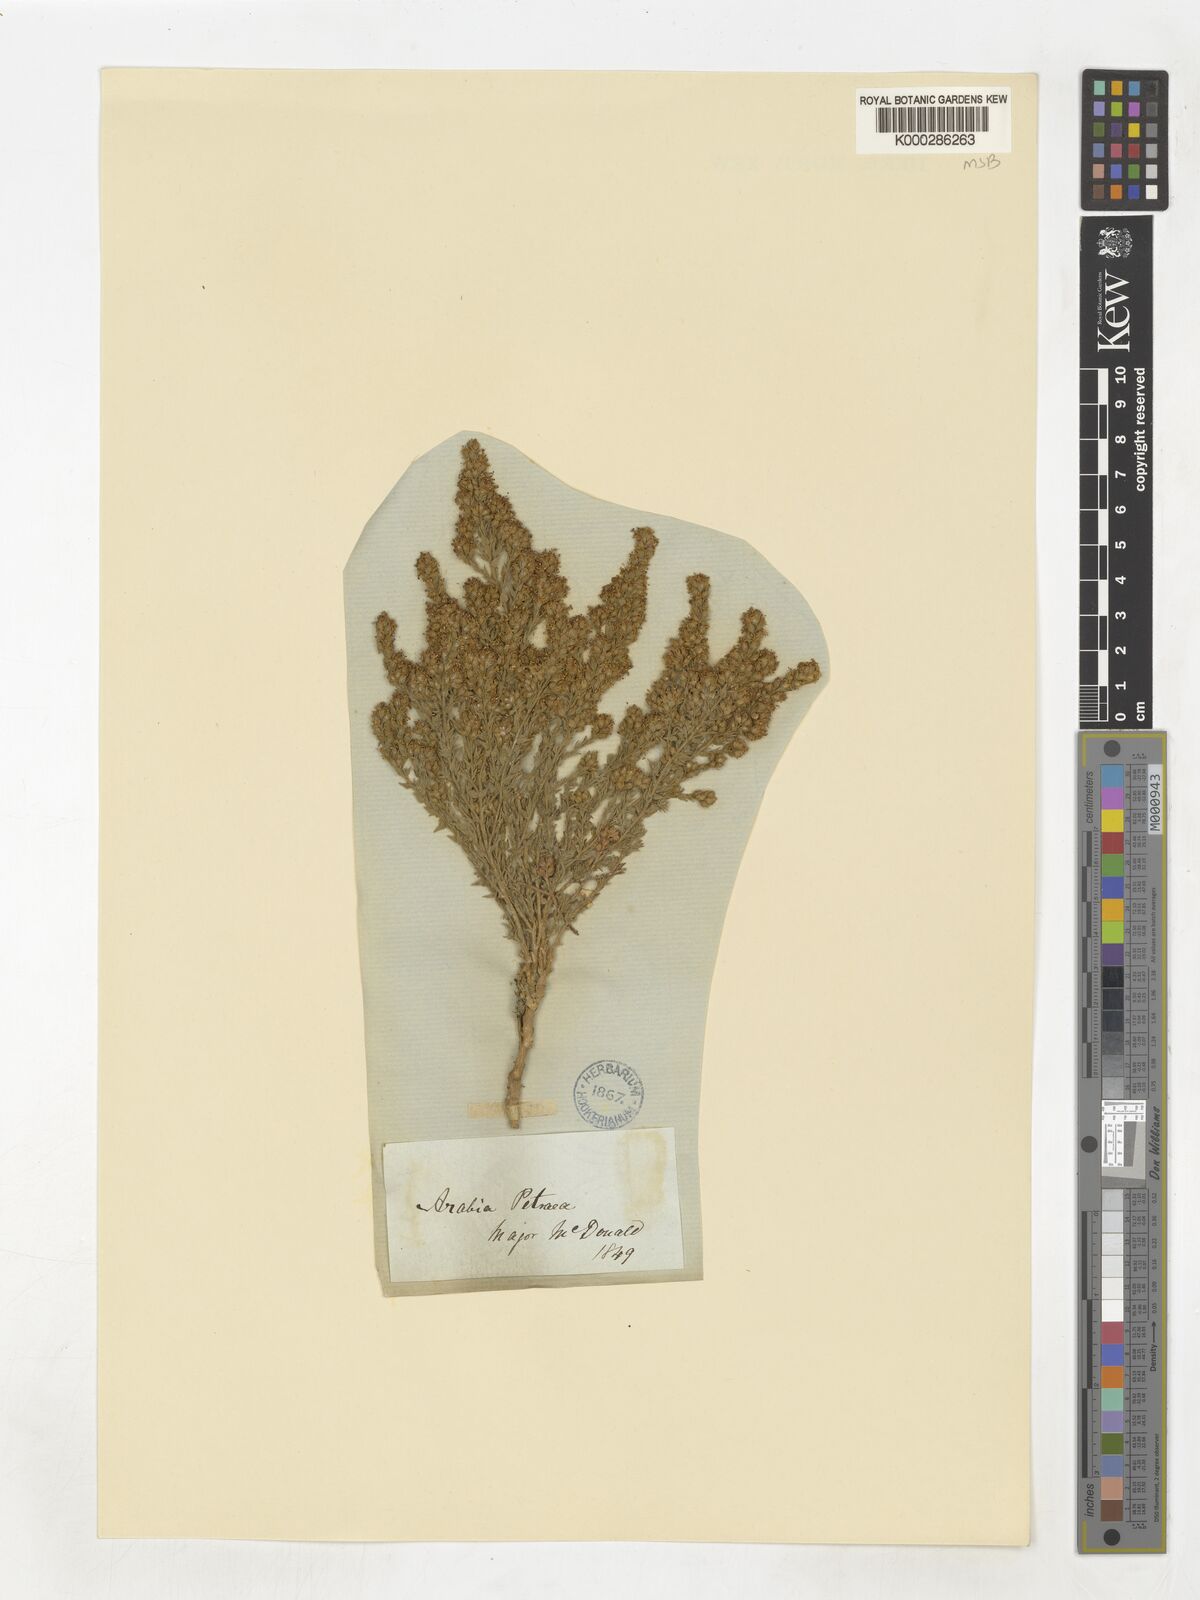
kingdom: Plantae
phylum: Tracheophyta
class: Magnoliopsida
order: Solanales
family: Convolvulaceae
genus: Cressa
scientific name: Cressa cretica
